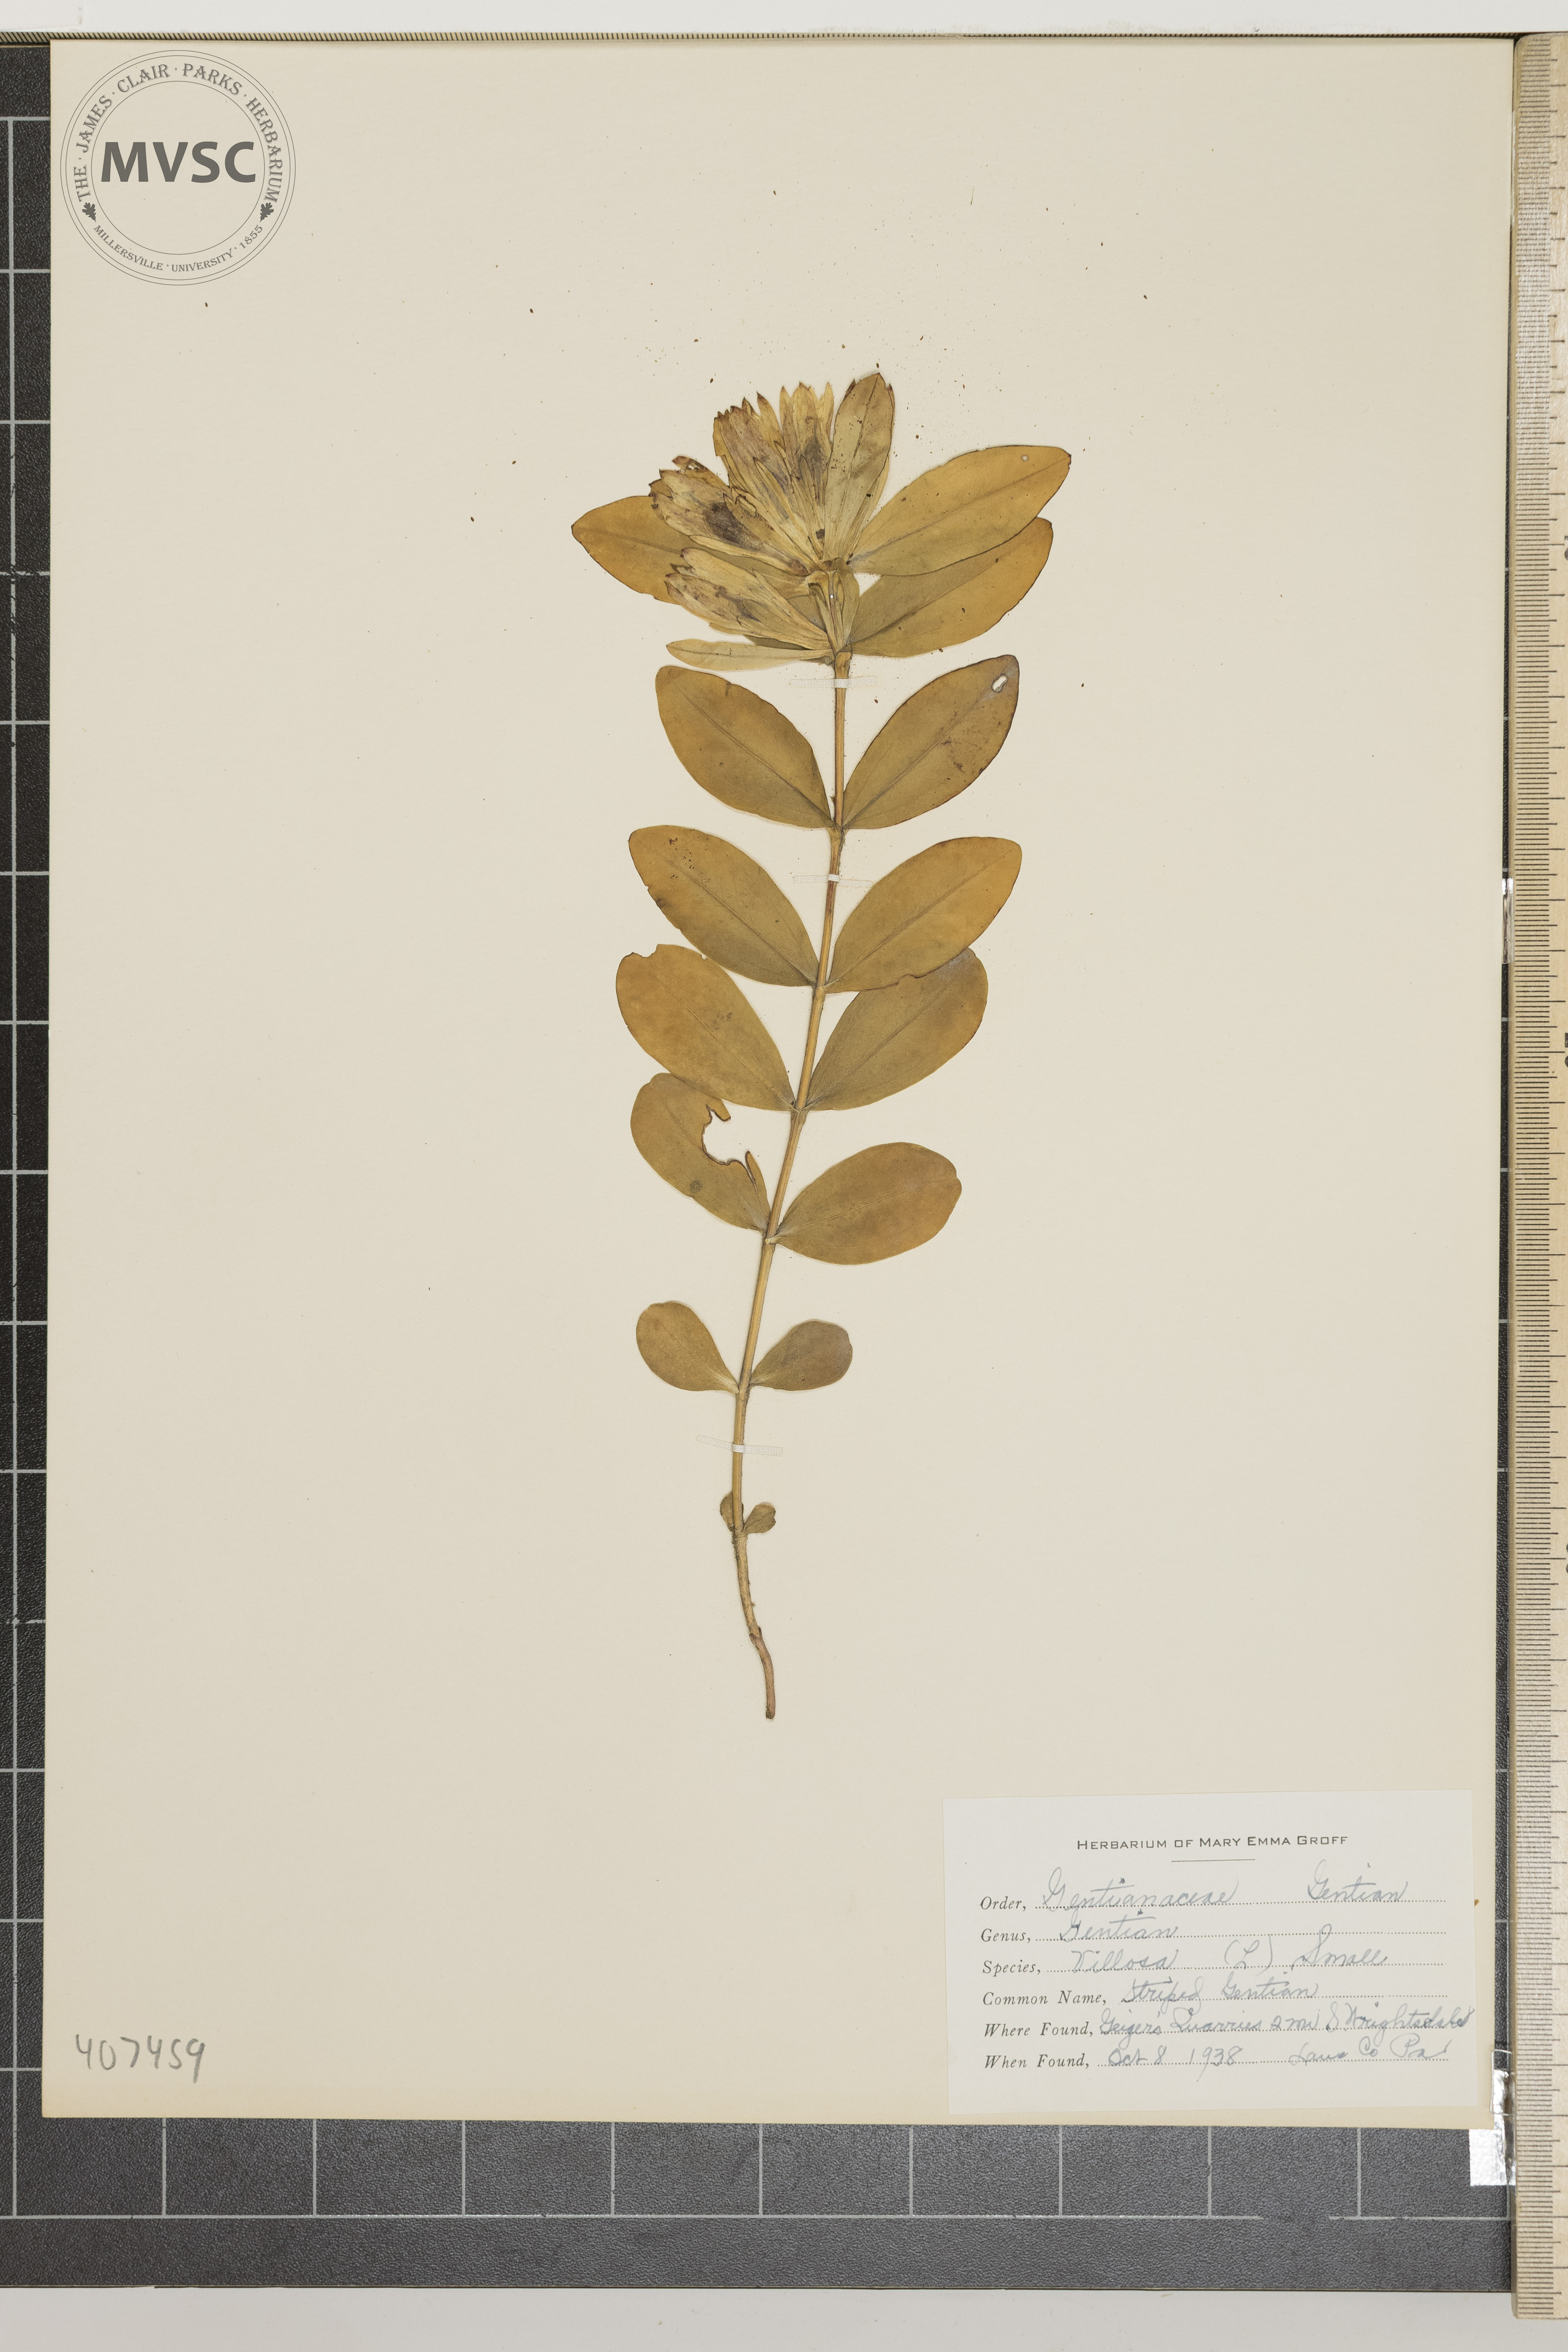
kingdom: Plantae
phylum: Tracheophyta
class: Magnoliopsida
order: Gentianales
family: Gentianaceae
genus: Gentiana
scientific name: Gentiana villosa
